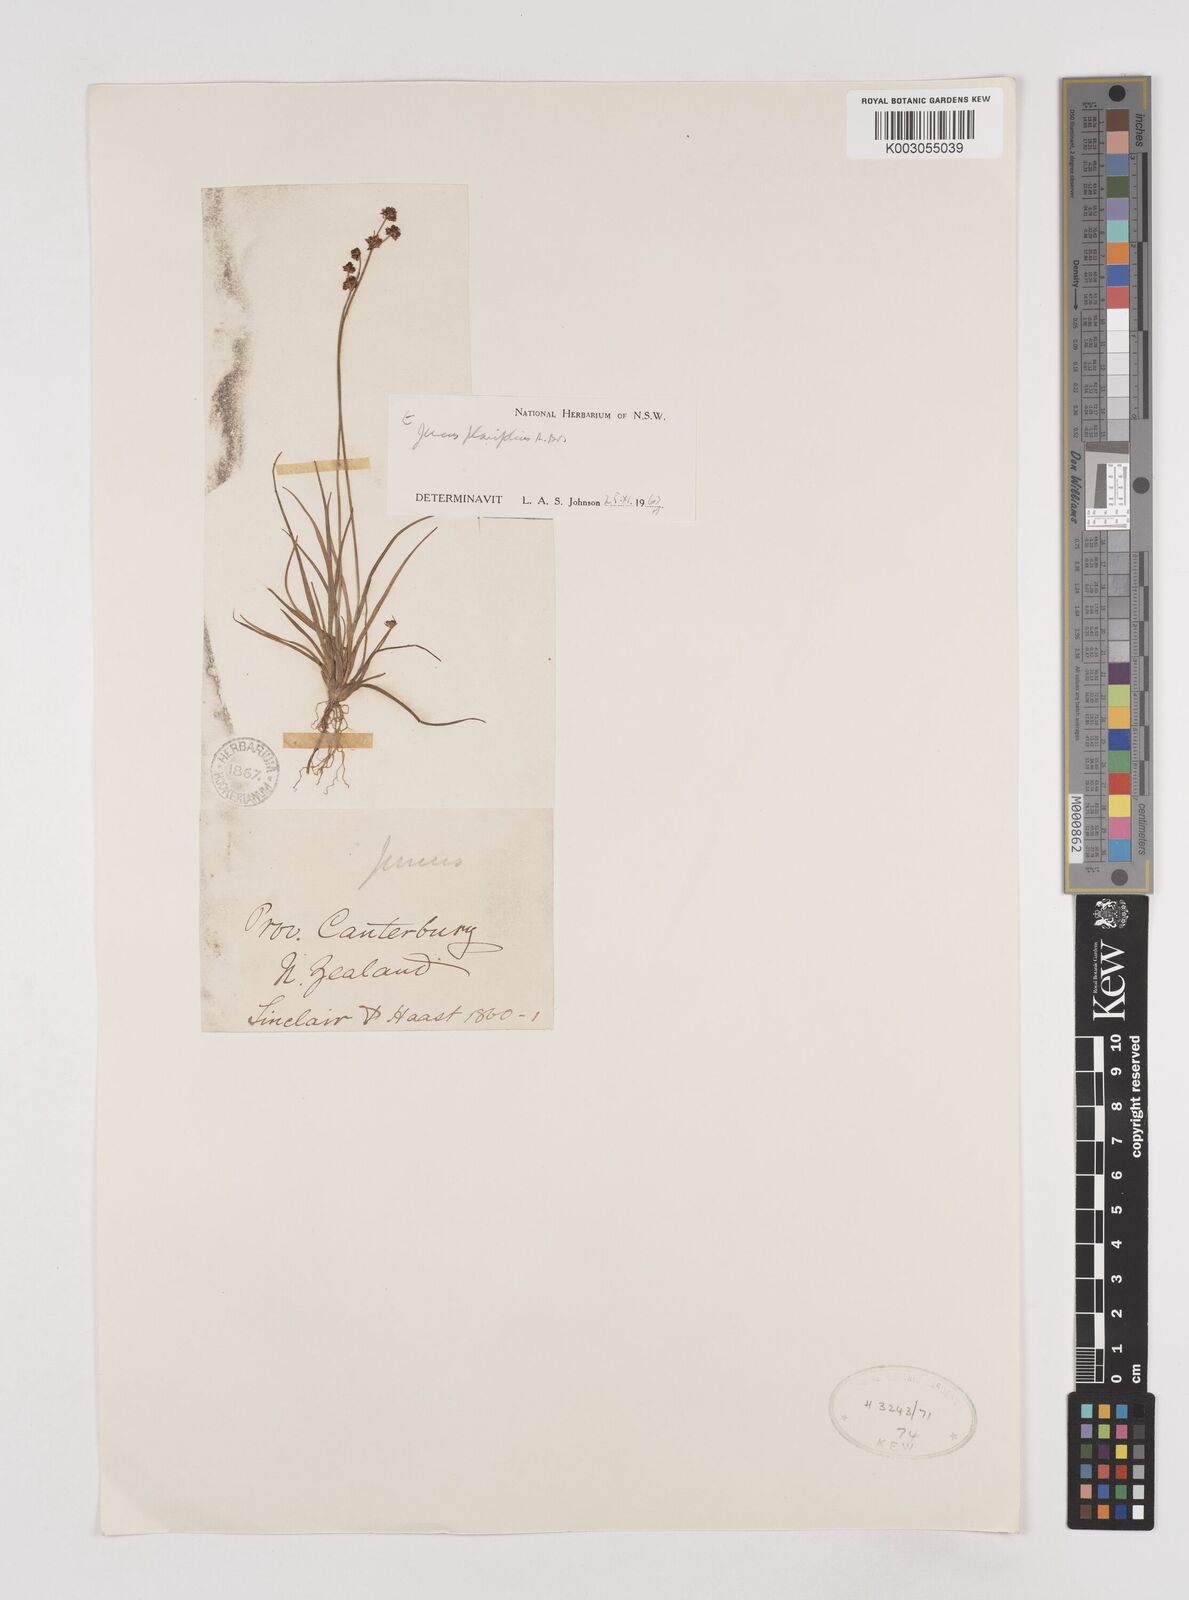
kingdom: Plantae
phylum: Tracheophyta
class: Liliopsida
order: Poales
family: Juncaceae
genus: Juncus
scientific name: Juncus planifolius
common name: Broadleaf rush
